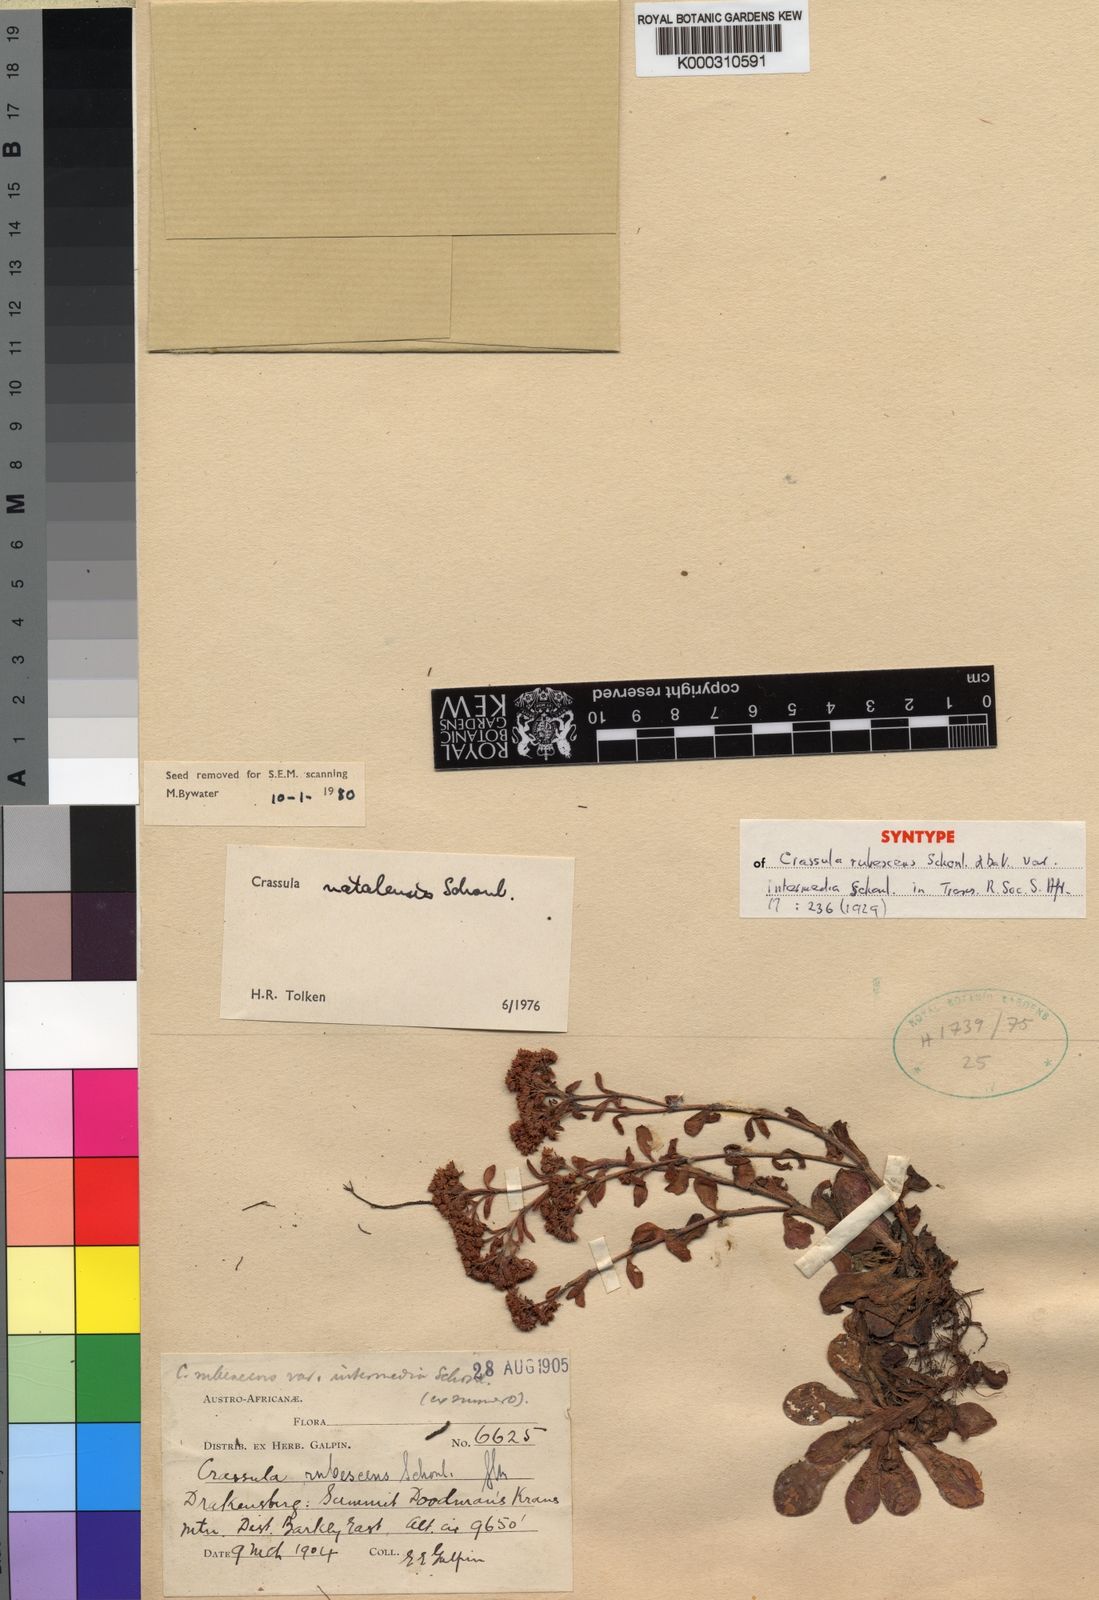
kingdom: Plantae
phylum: Tracheophyta
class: Magnoliopsida
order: Saxifragales
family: Crassulaceae
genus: Crassula
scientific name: Crassula
